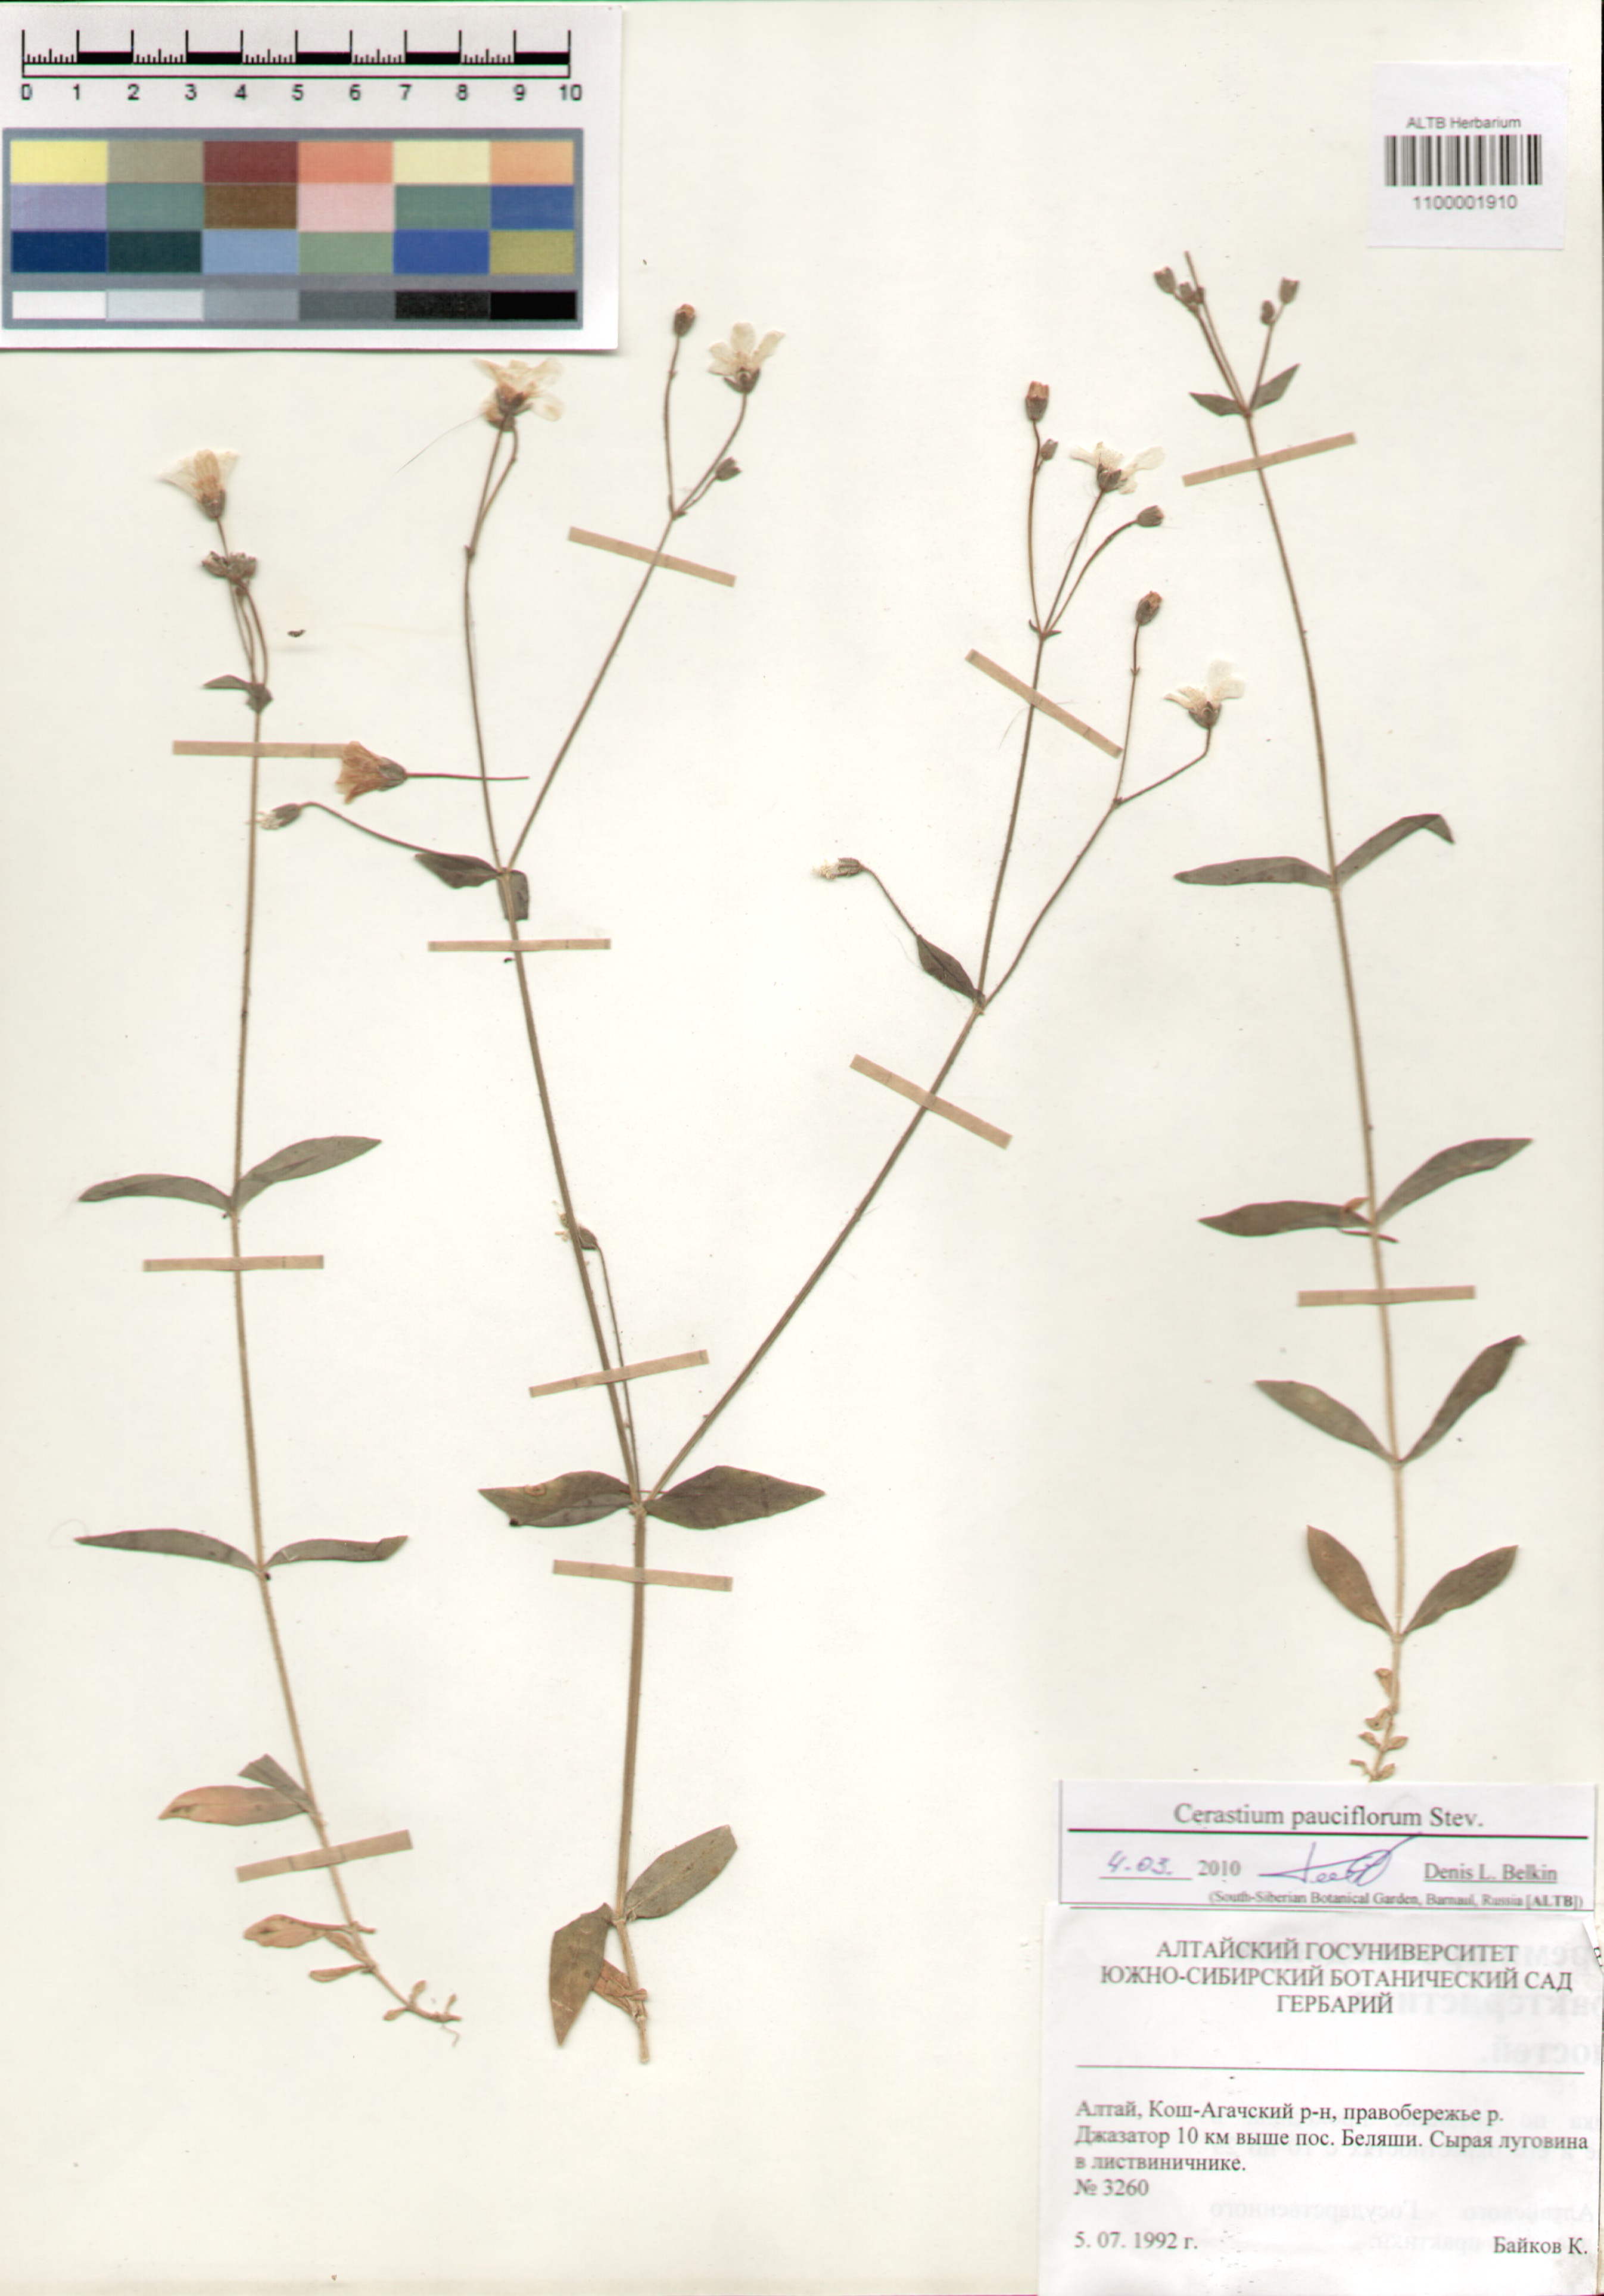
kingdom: Plantae
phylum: Tracheophyta
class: Magnoliopsida
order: Caryophyllales
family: Caryophyllaceae
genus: Cerastium
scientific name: Cerastium pauciflorum
